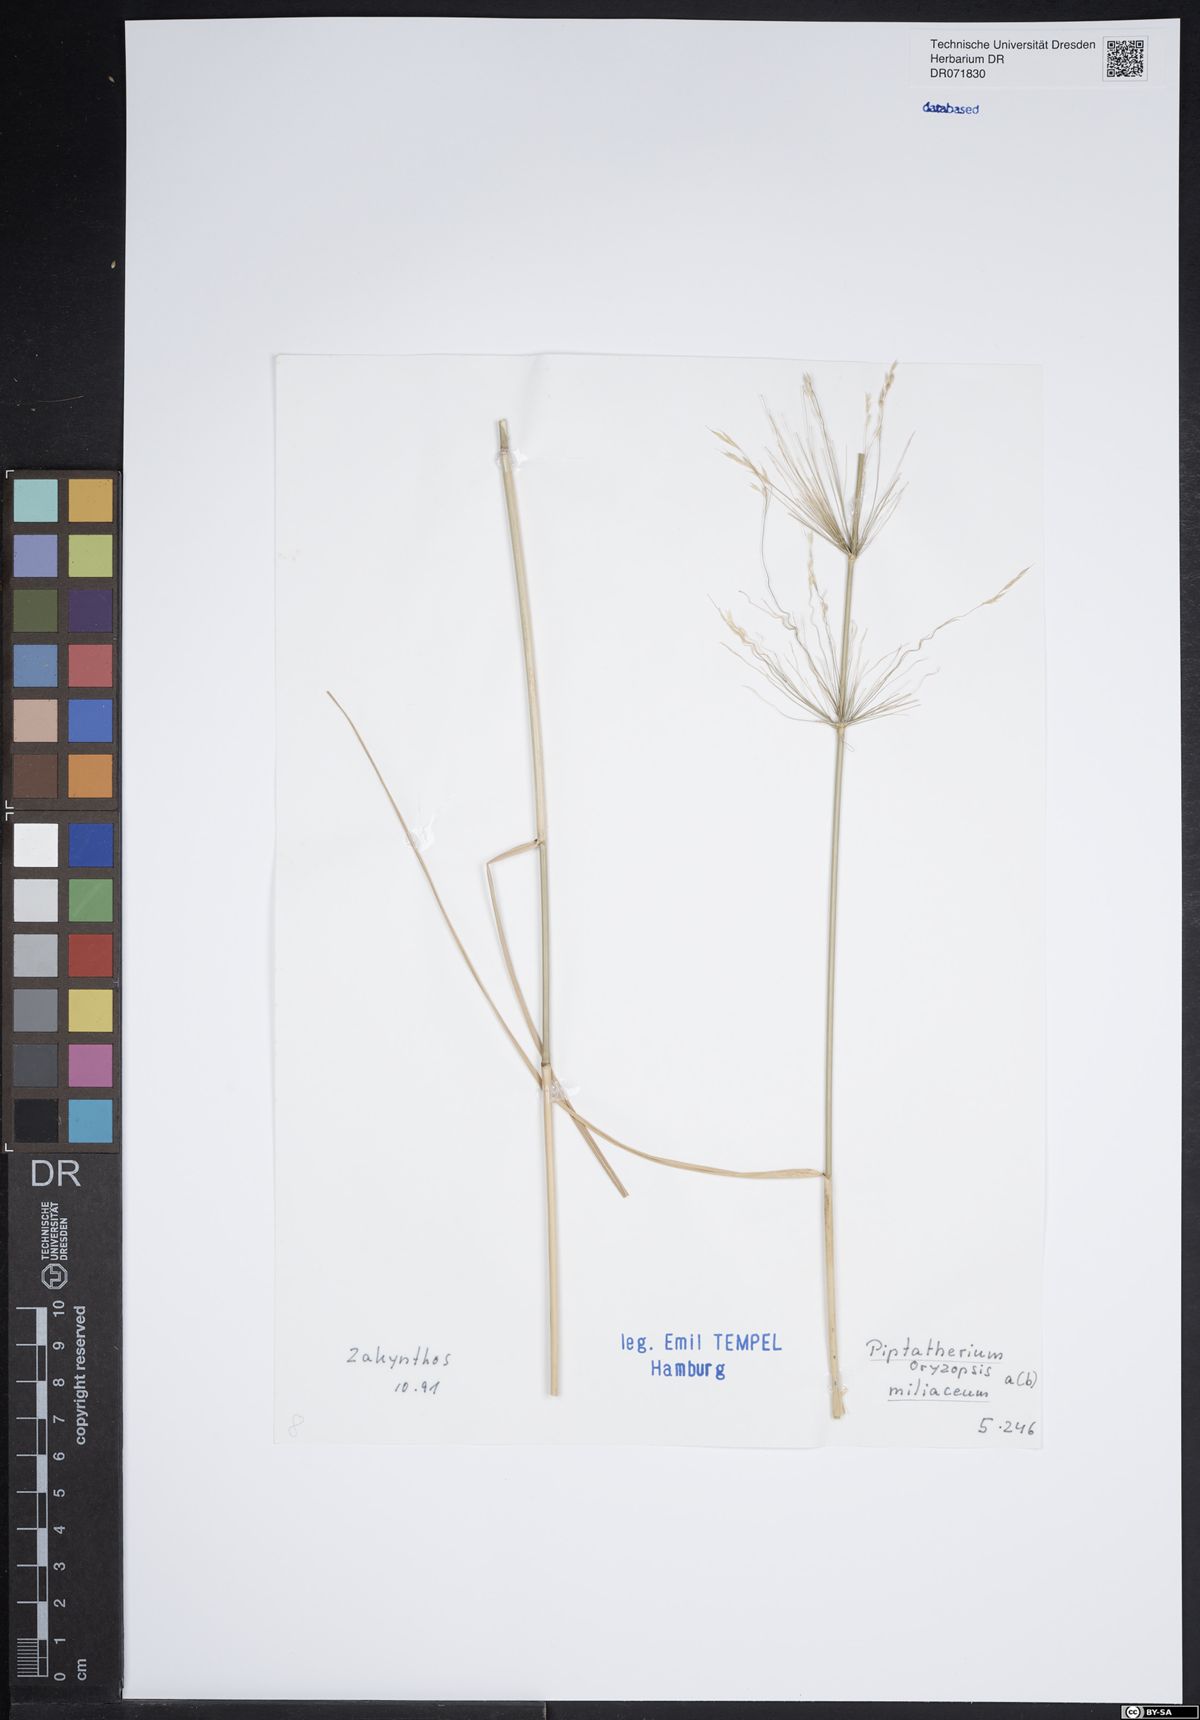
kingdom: Plantae
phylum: Tracheophyta
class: Liliopsida
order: Poales
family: Poaceae
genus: Oloptum
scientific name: Oloptum miliaceum
